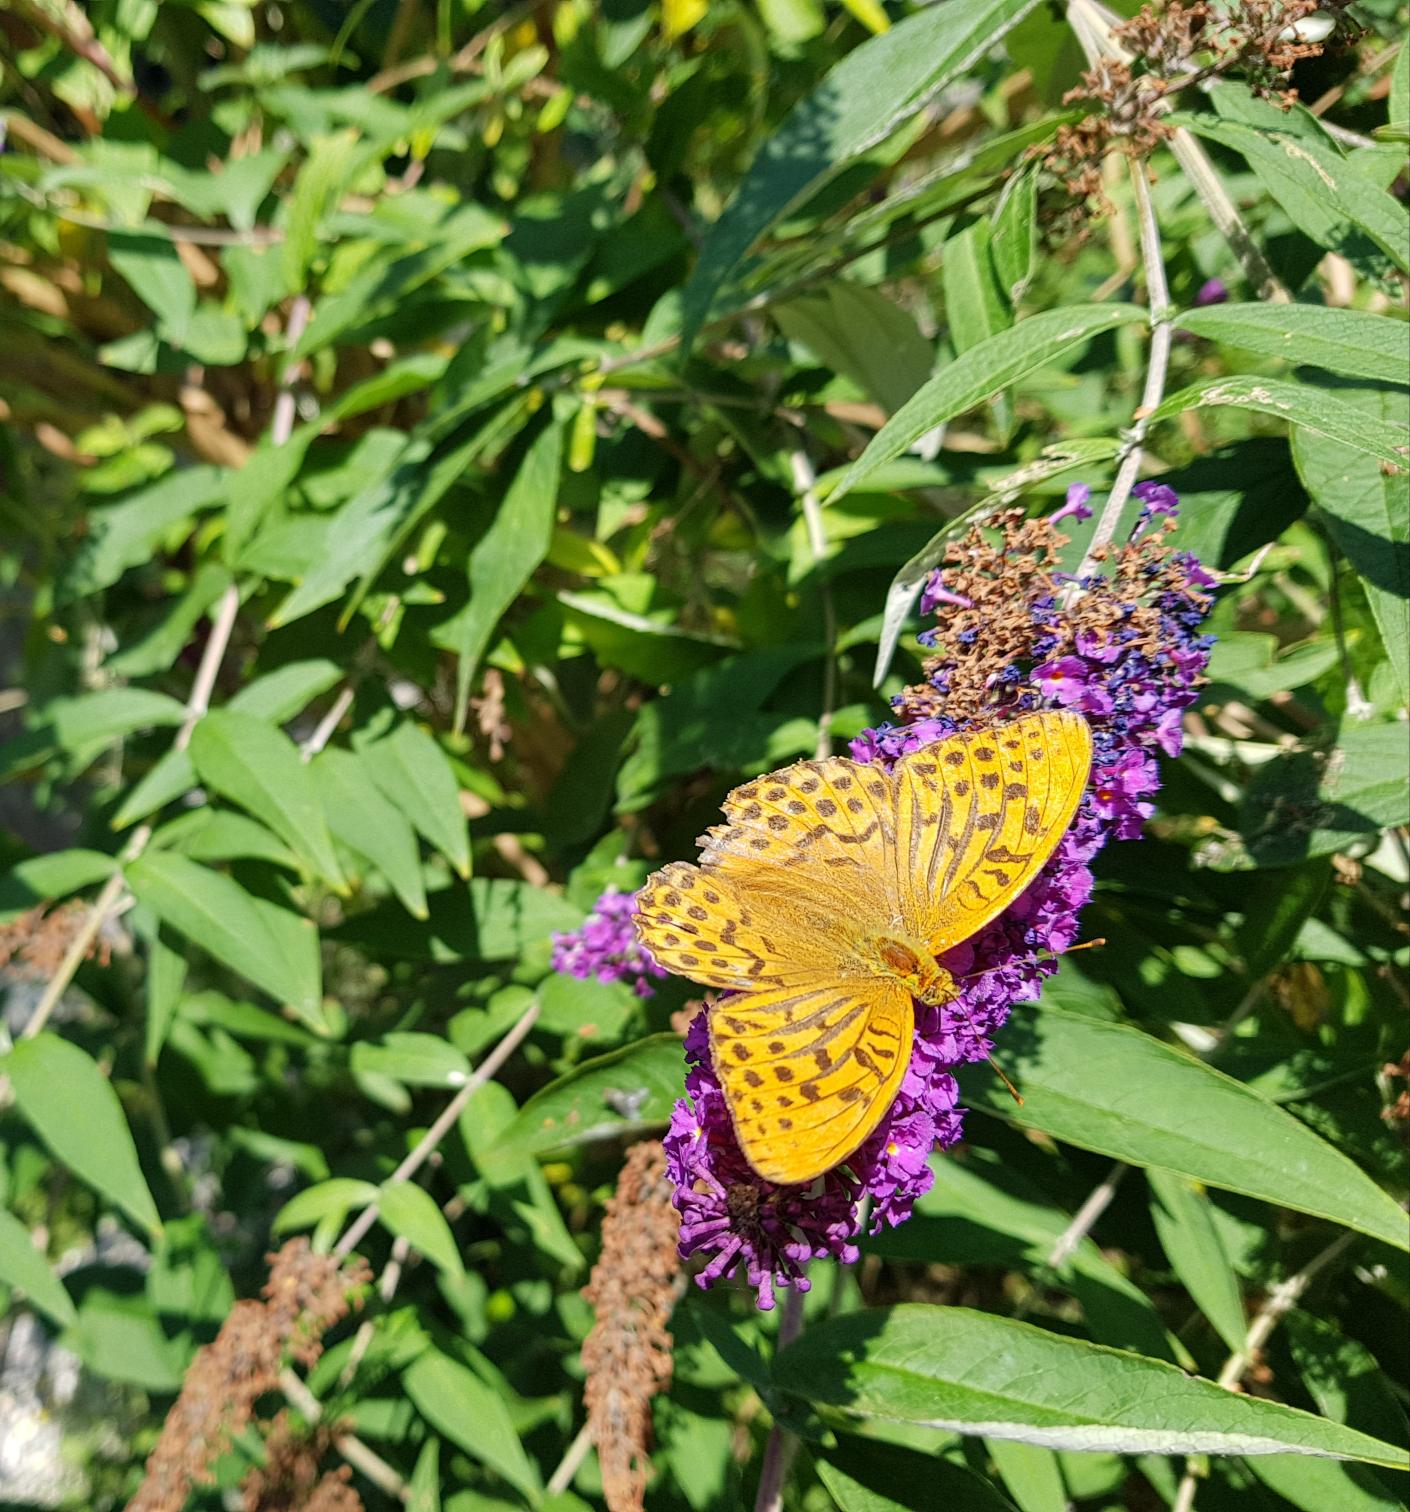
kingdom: Animalia
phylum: Arthropoda
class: Insecta
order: Lepidoptera
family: Nymphalidae
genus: Argynnis
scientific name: Argynnis paphia
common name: Kejserkåbe
